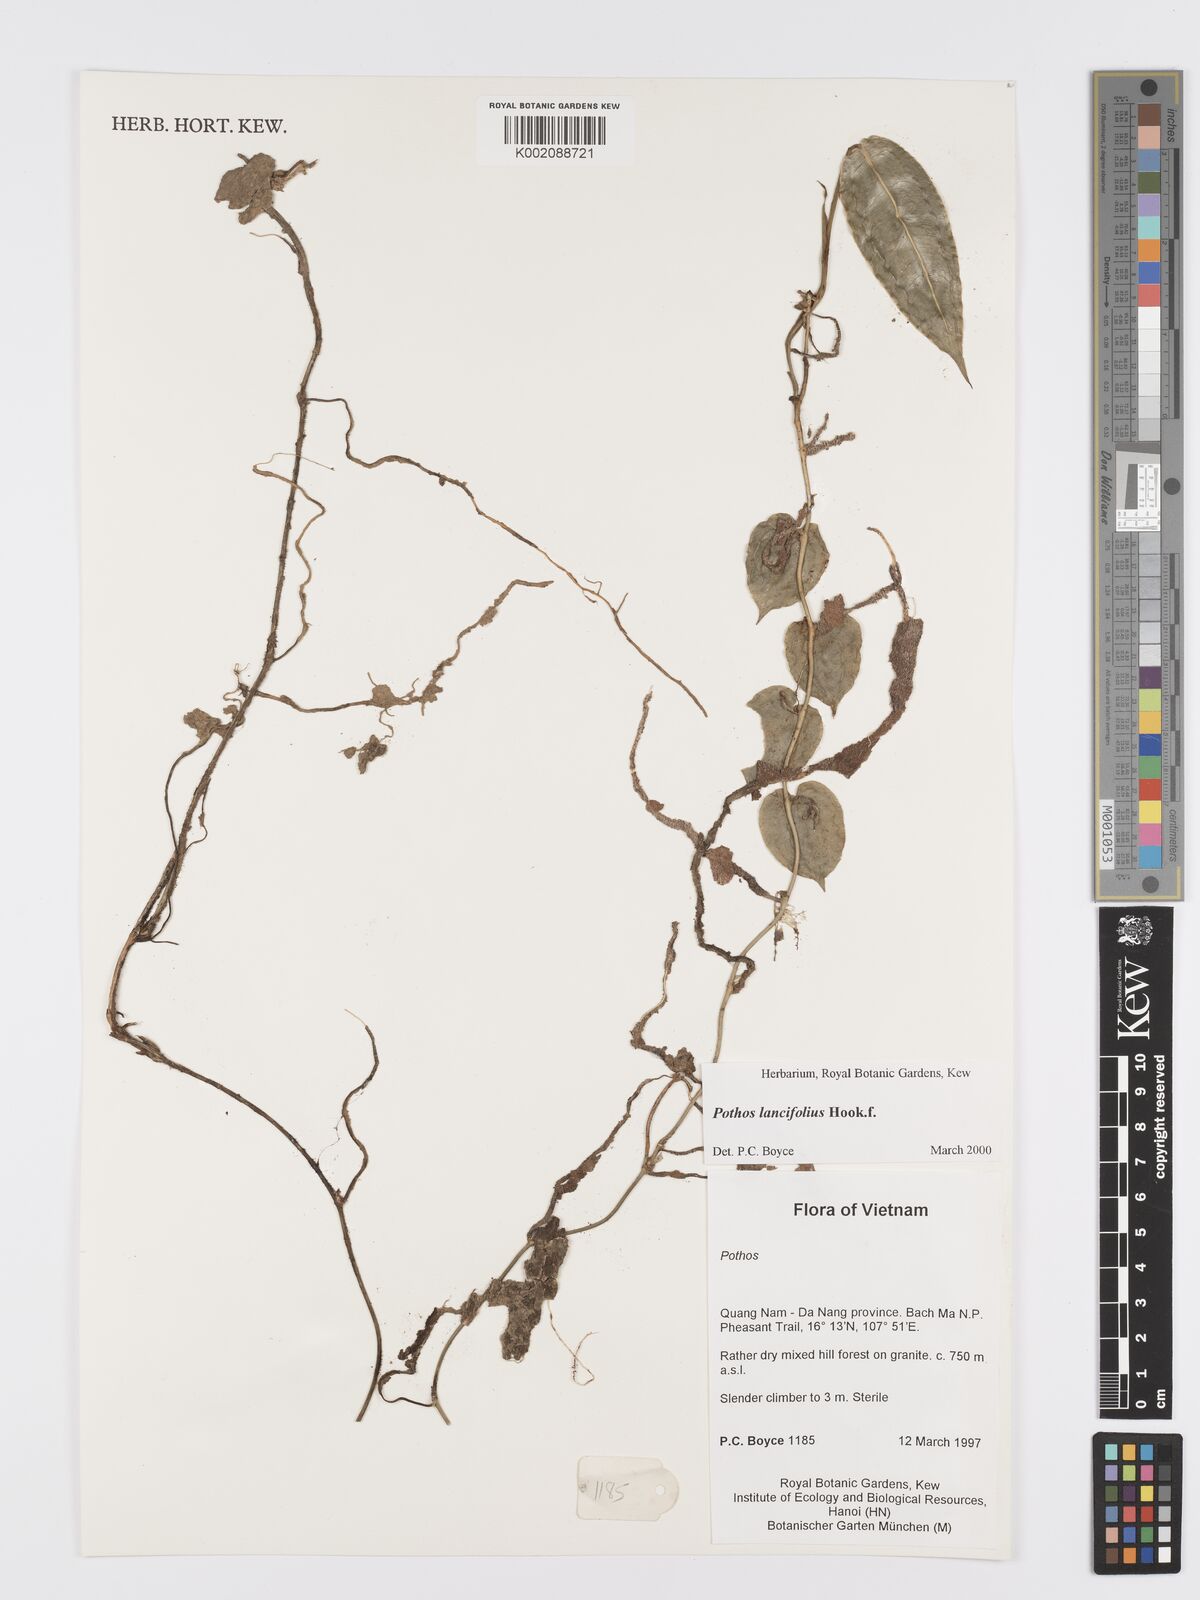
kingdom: Plantae
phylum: Tracheophyta
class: Liliopsida
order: Alismatales
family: Araceae
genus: Pothos
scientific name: Pothos lancifolius
